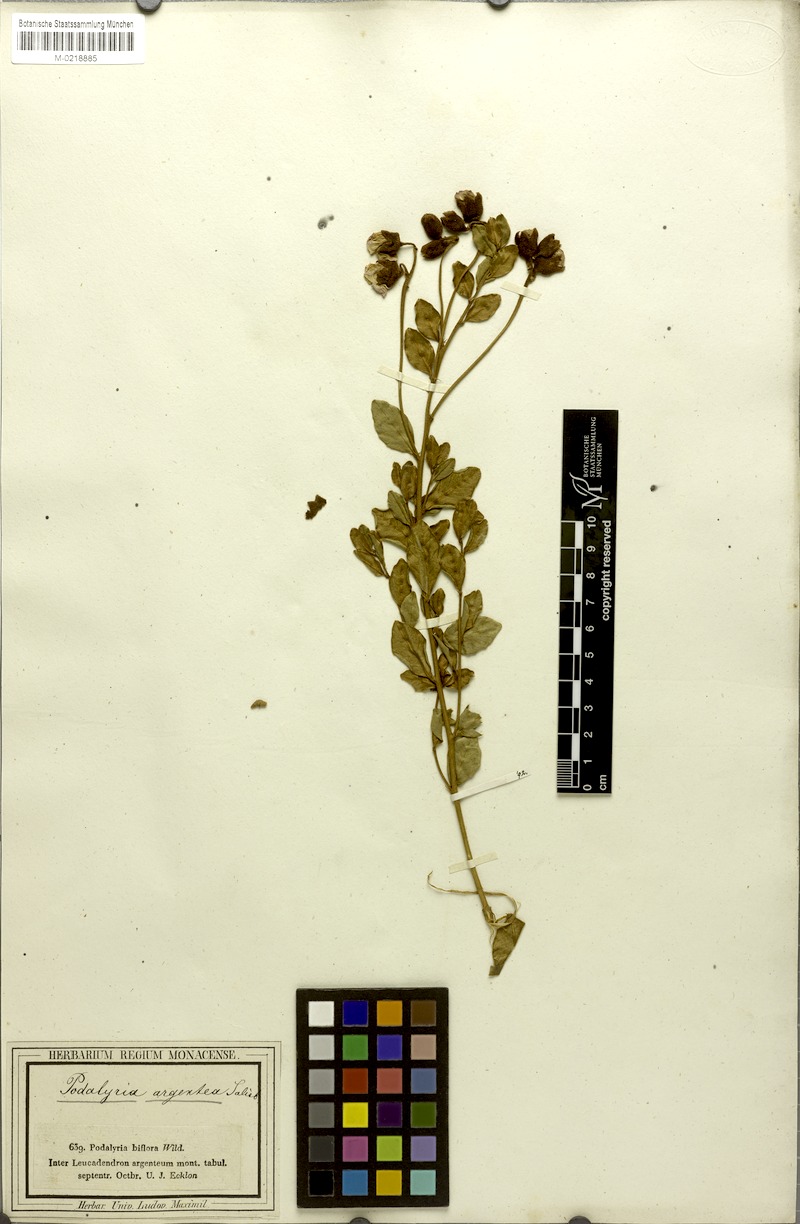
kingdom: Plantae
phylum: Tracheophyta
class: Magnoliopsida
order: Fabales
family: Fabaceae
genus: Podalyria
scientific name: Podalyria racemulosa
